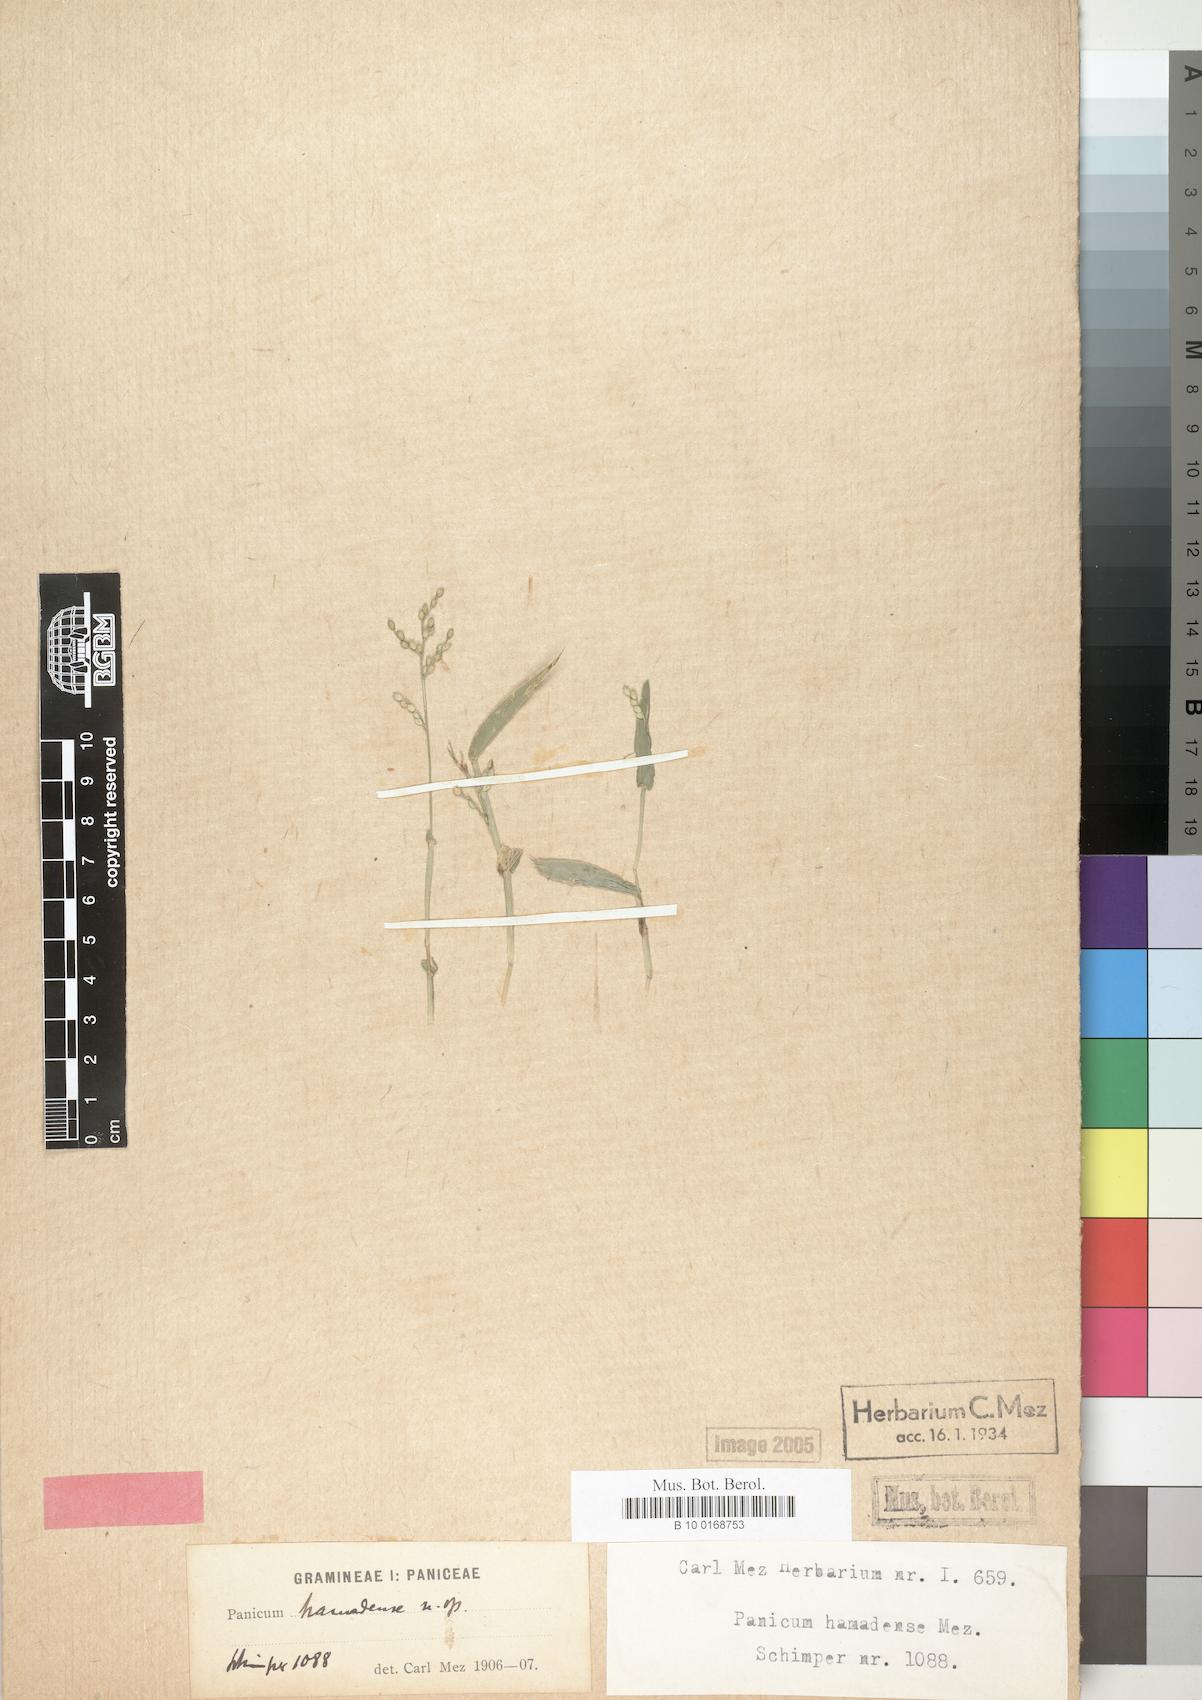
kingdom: Plantae
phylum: Tracheophyta
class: Liliopsida
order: Poales
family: Poaceae
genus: Urochloa
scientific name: Urochloa lata
